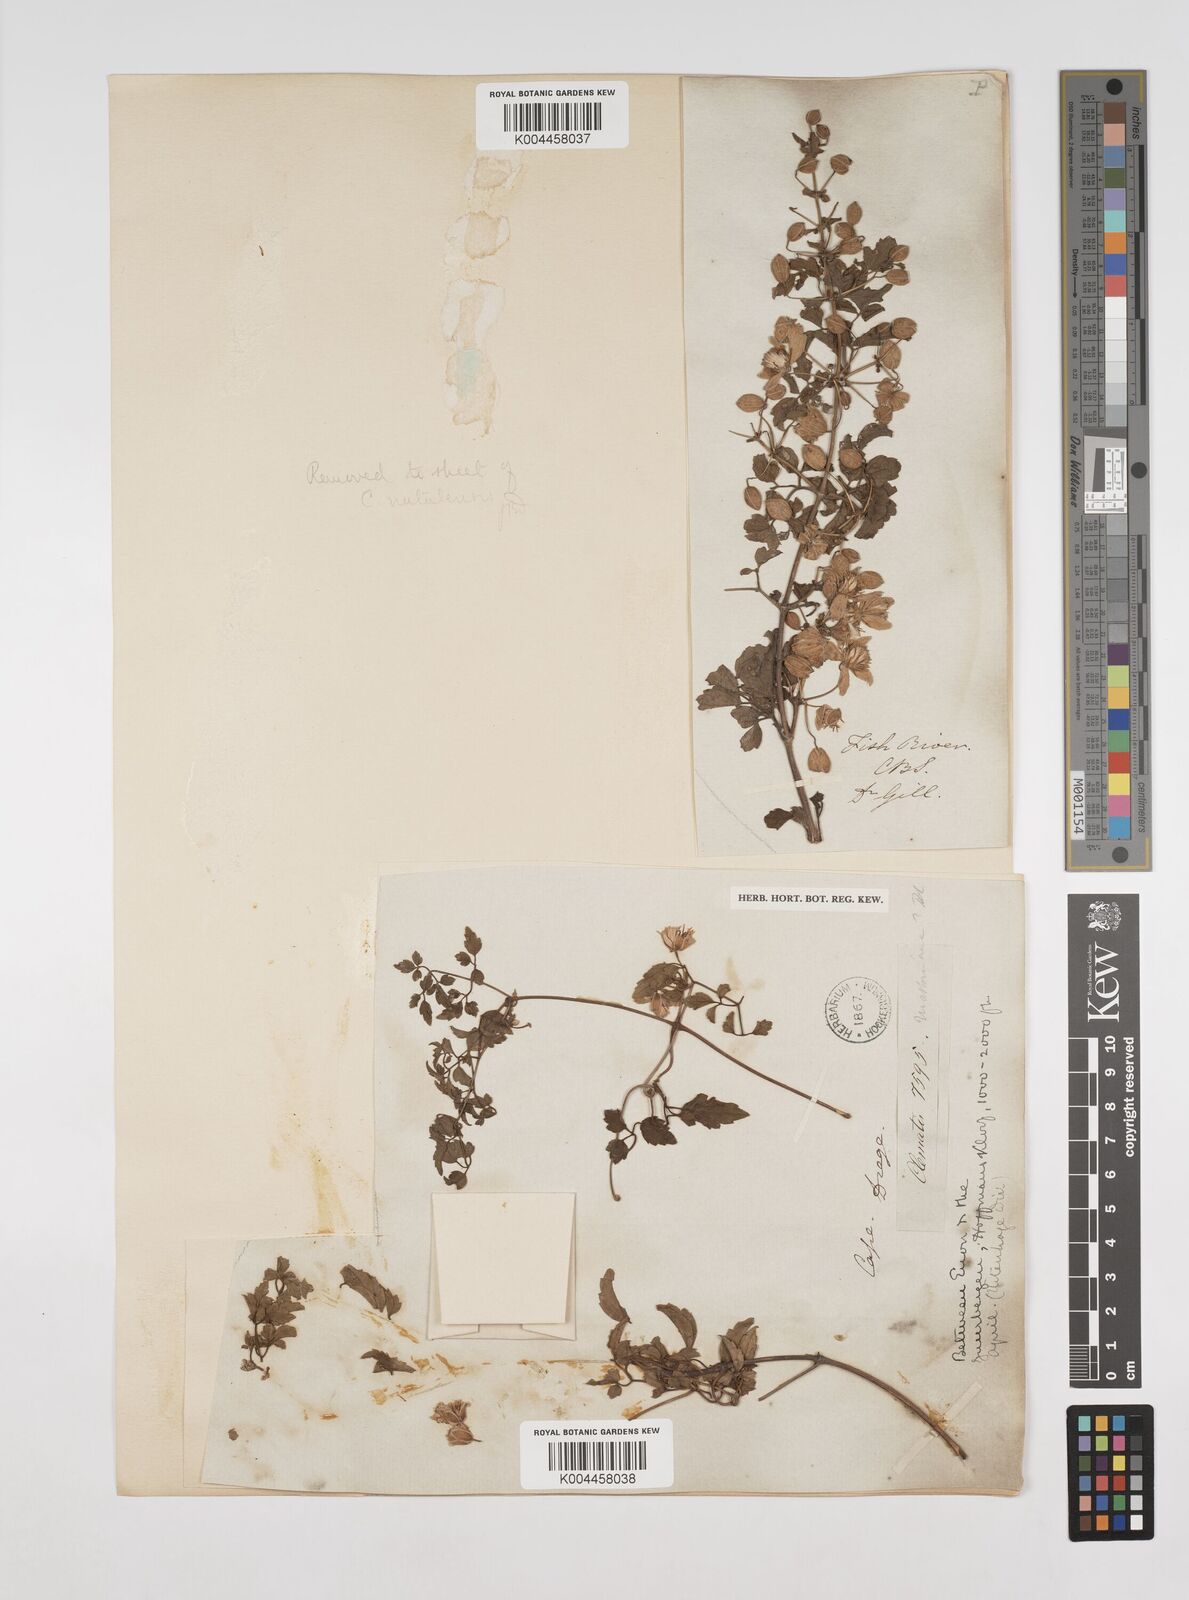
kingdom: Plantae
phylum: Tracheophyta
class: Magnoliopsida
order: Ranunculales
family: Ranunculaceae
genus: Clematis
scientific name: Clematis brachiata
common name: Traveler's-joy
